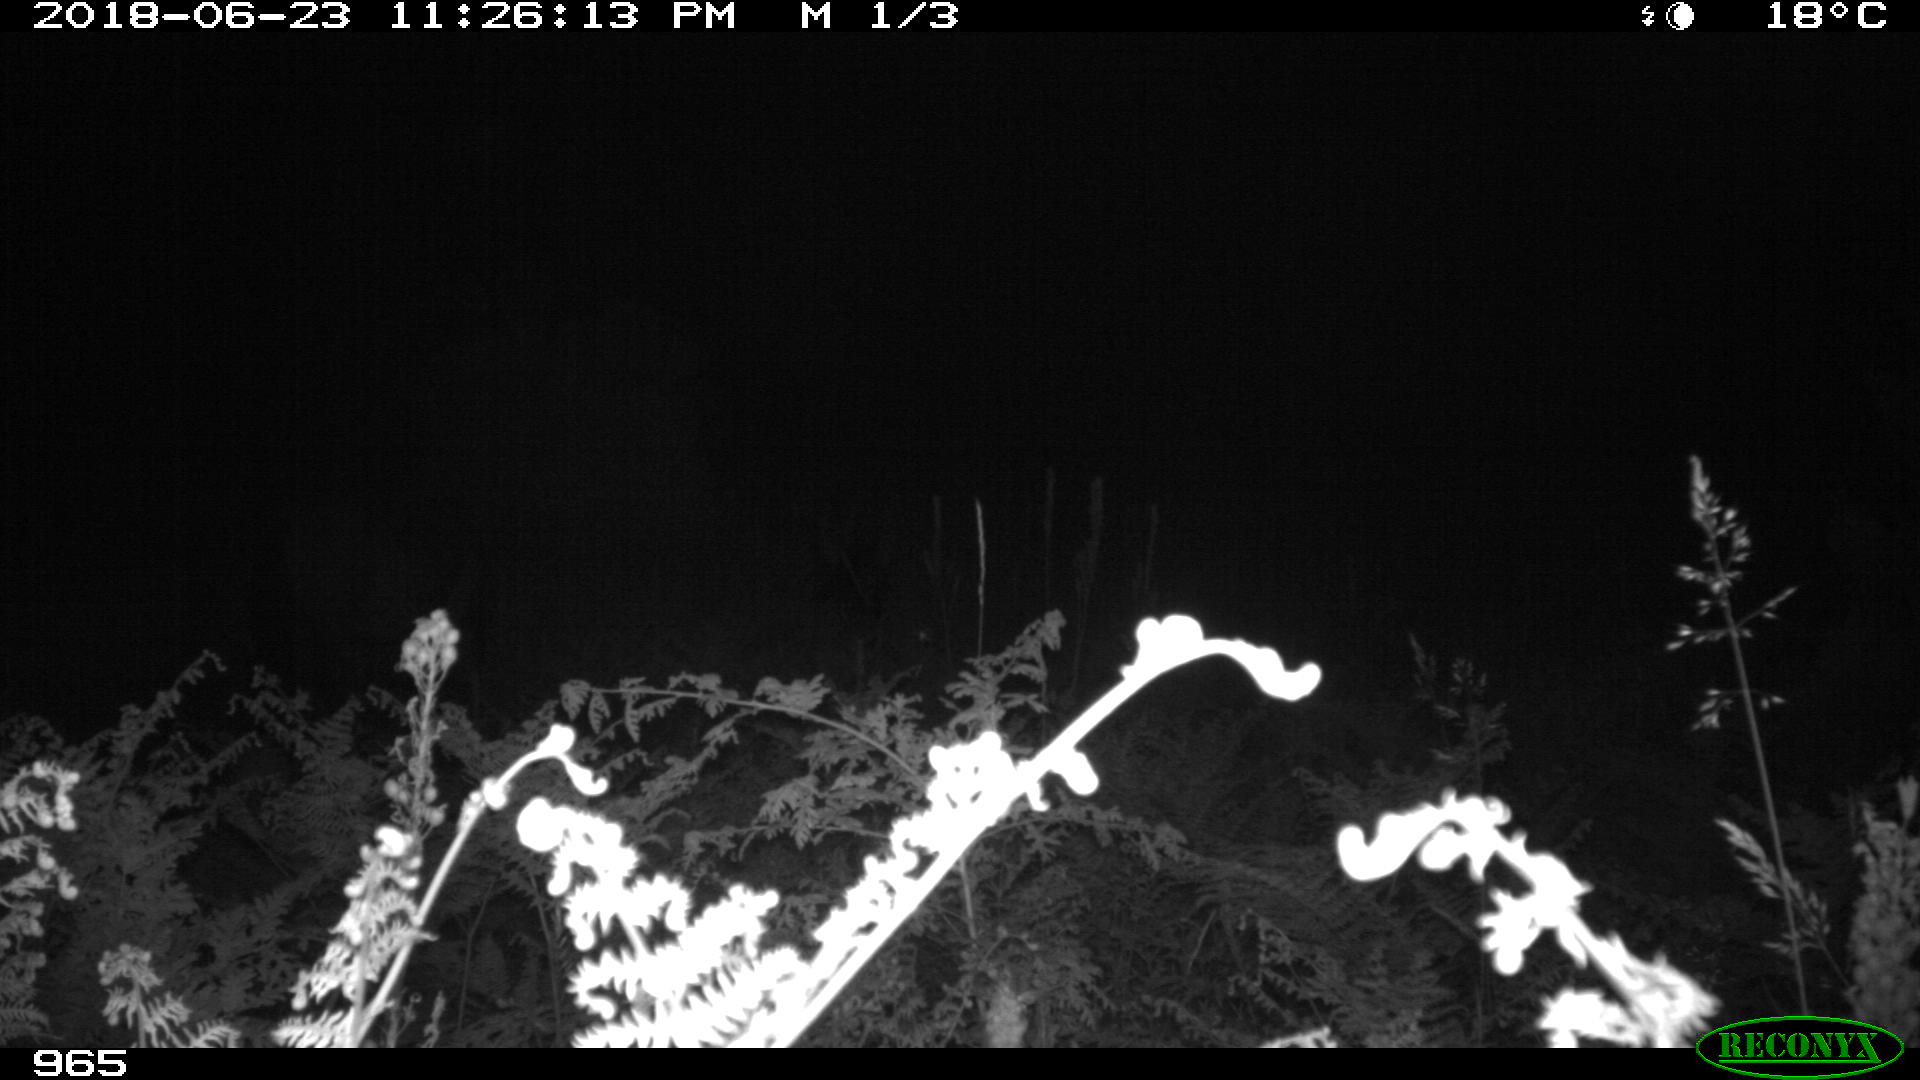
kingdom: Animalia
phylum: Chordata
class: Mammalia
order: Perissodactyla
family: Equidae
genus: Equus
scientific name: Equus caballus
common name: Horse
